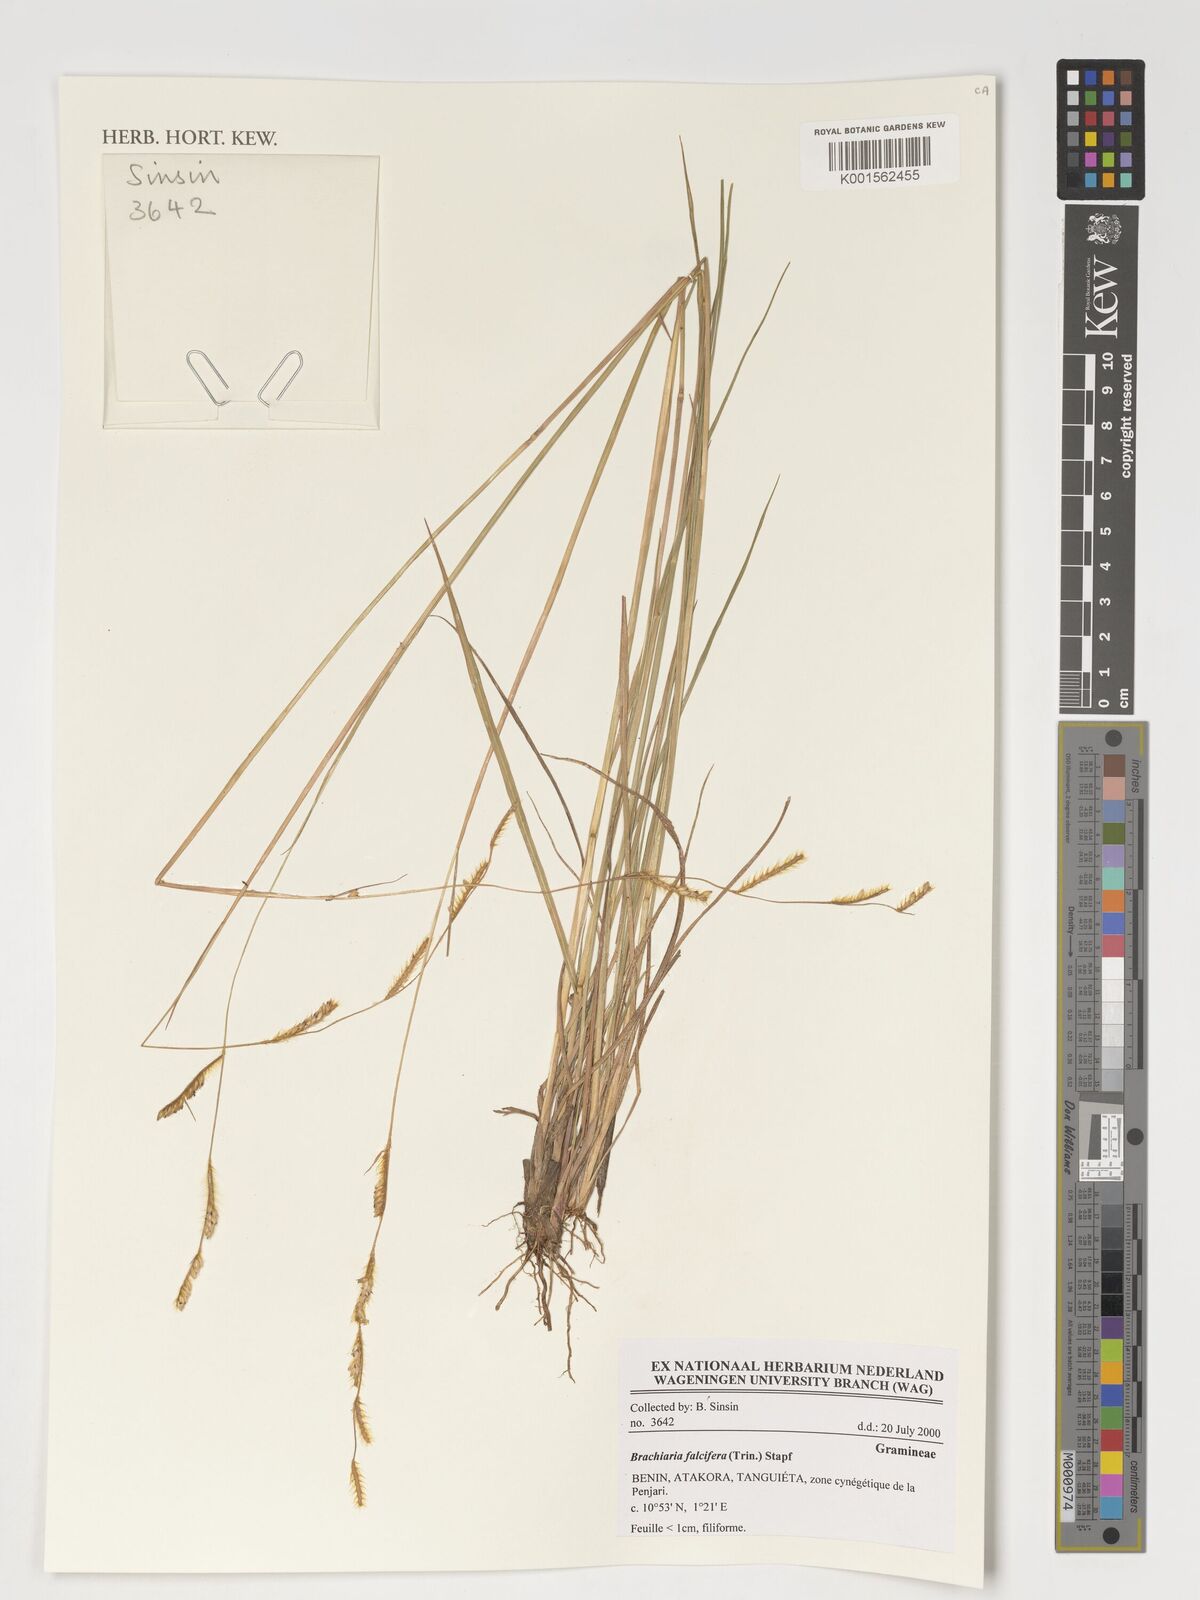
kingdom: Plantae
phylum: Tracheophyta
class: Liliopsida
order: Poales
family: Poaceae
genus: Urochloa
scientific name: Urochloa falcifera
